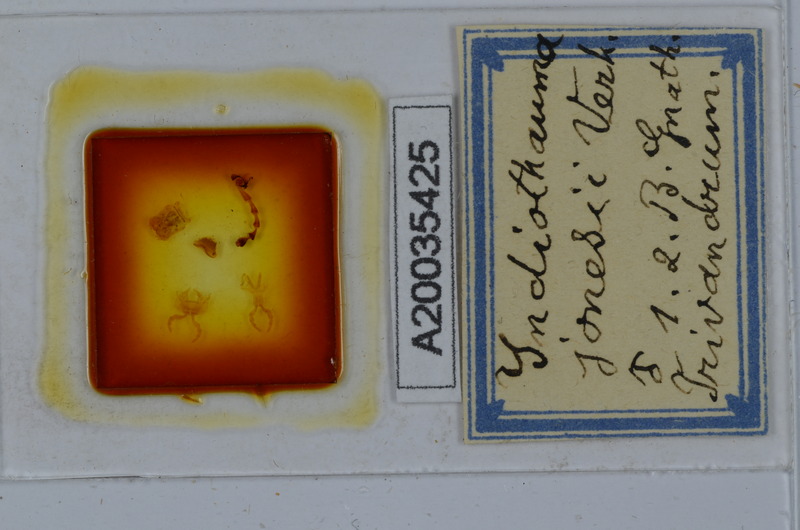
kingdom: Animalia
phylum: Arthropoda
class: Diplopoda
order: Spirostreptida
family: Harpagophoridae
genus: Harpurostreptus
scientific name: Harpurostreptus jonesi
